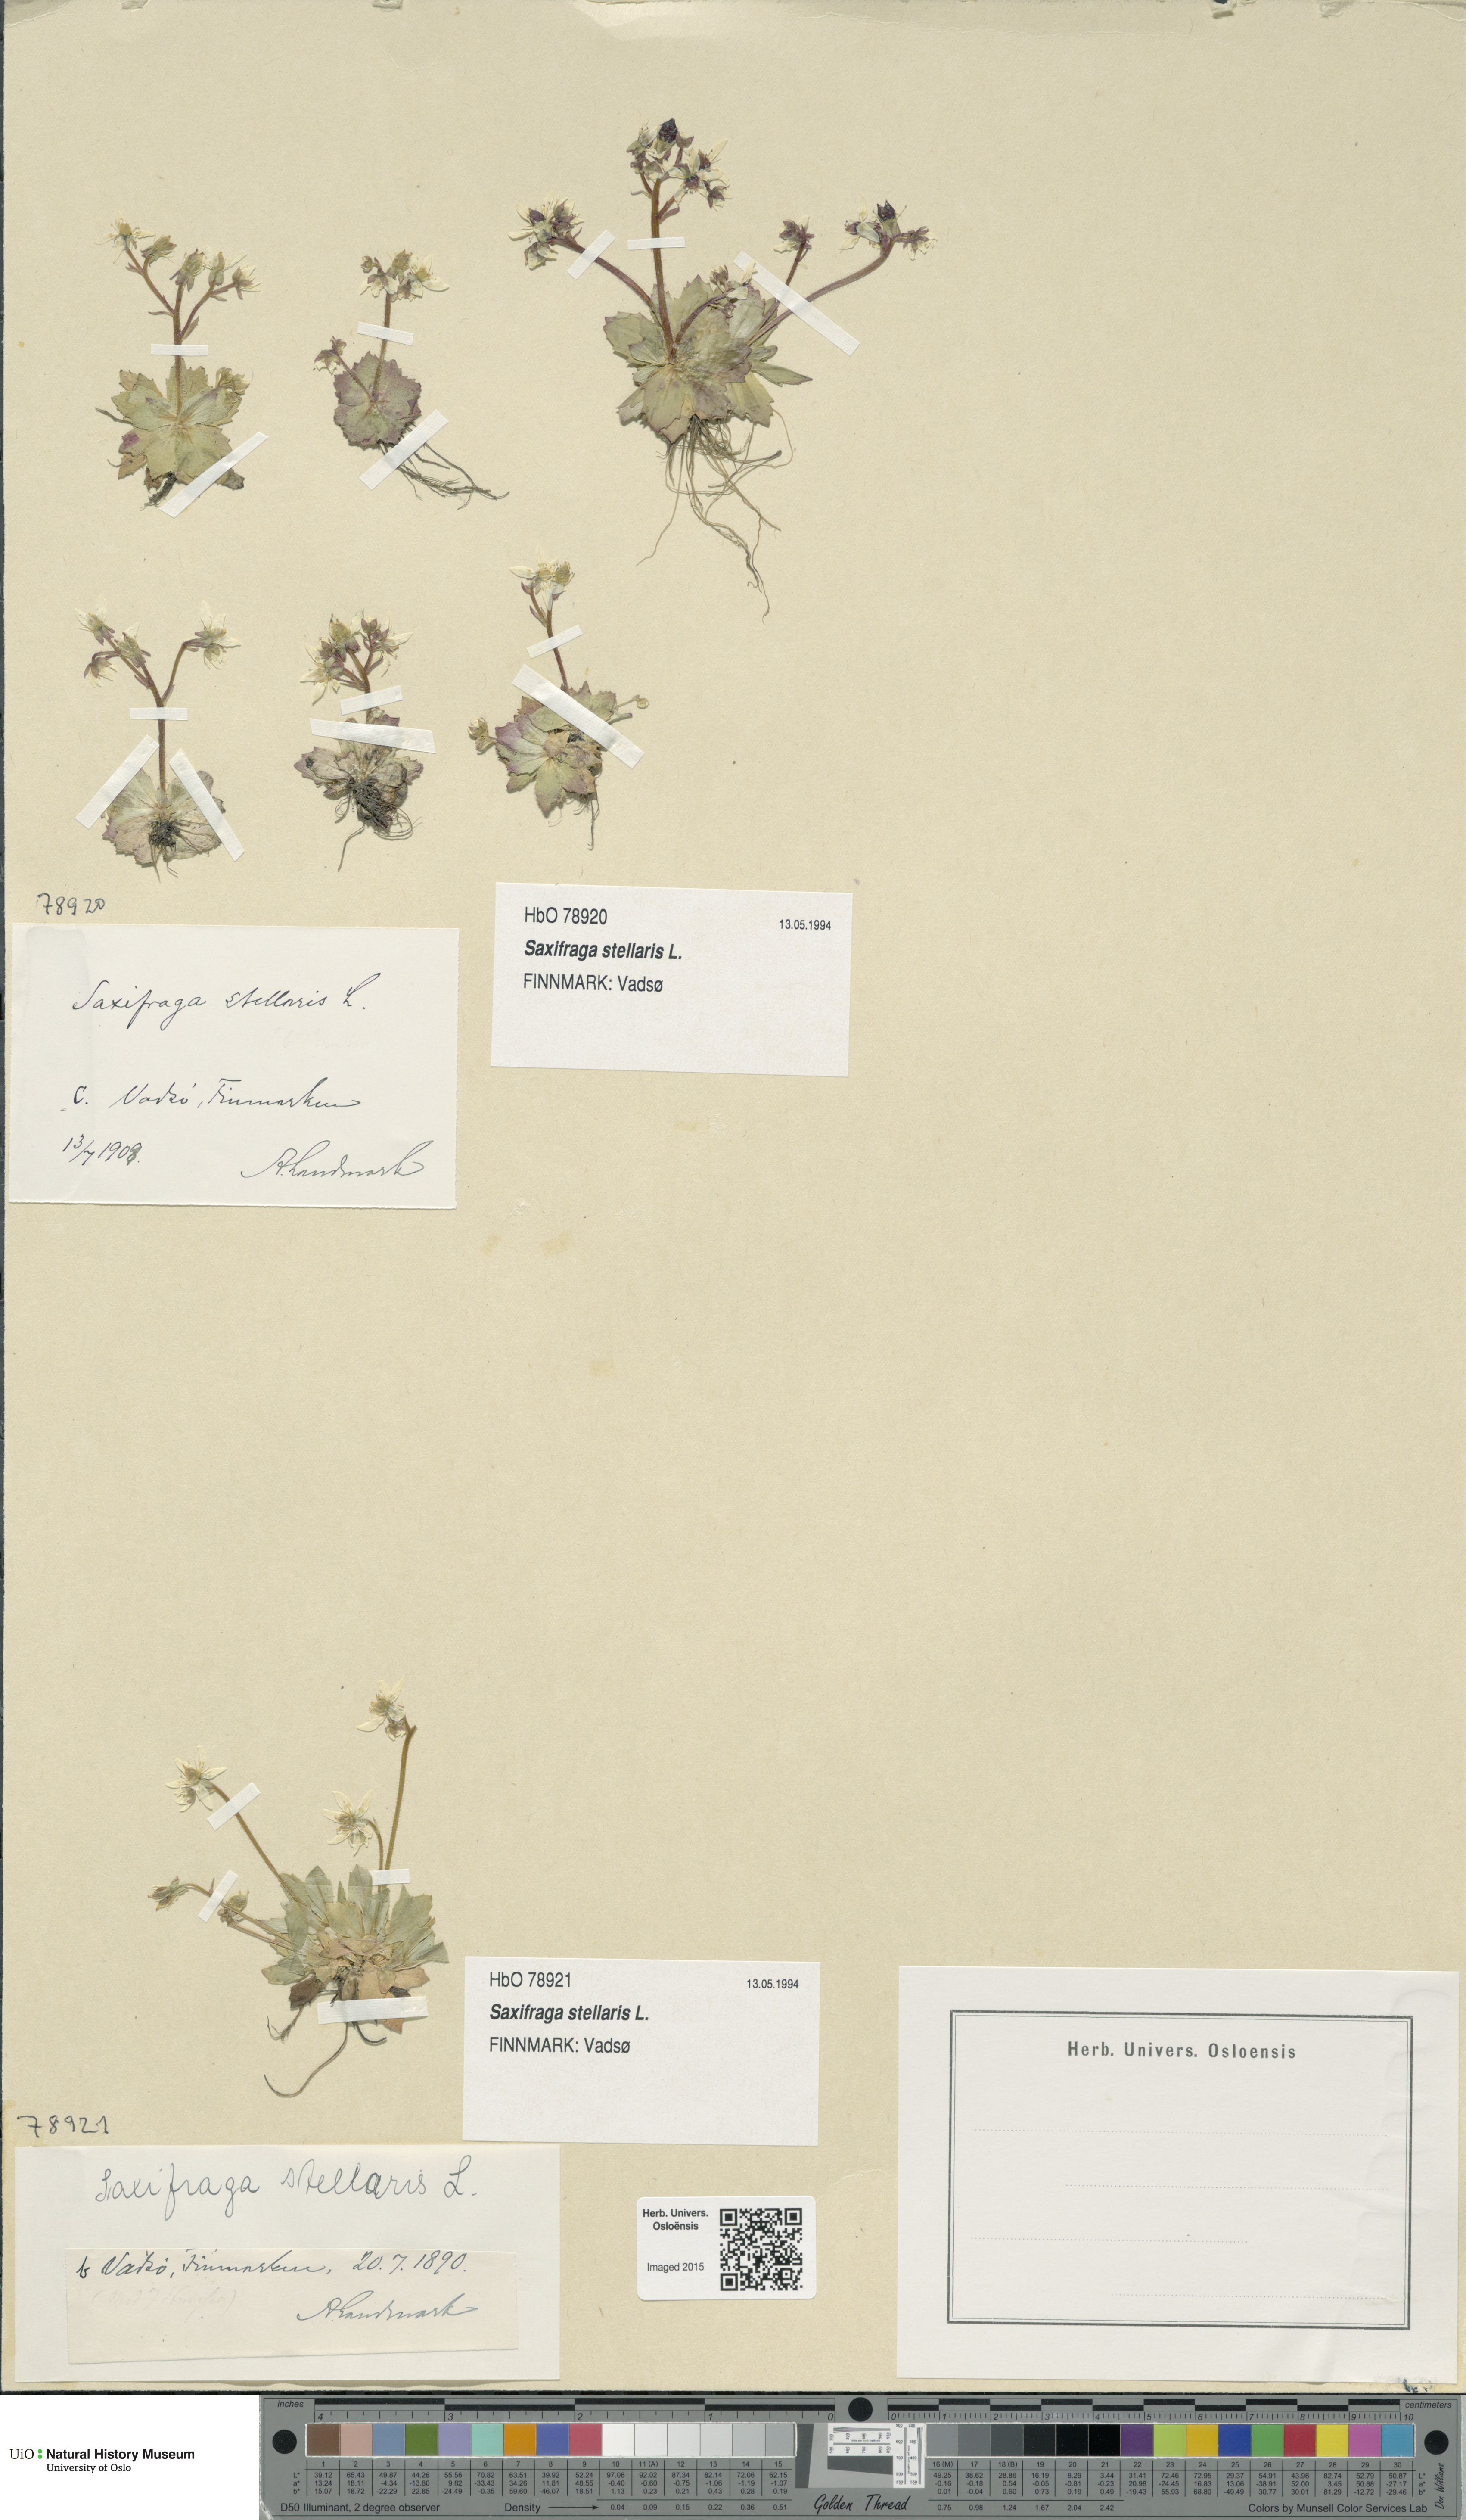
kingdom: Plantae
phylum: Tracheophyta
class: Magnoliopsida
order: Saxifragales
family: Saxifragaceae
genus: Micranthes
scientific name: Micranthes stellaris
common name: Starry saxifrage
